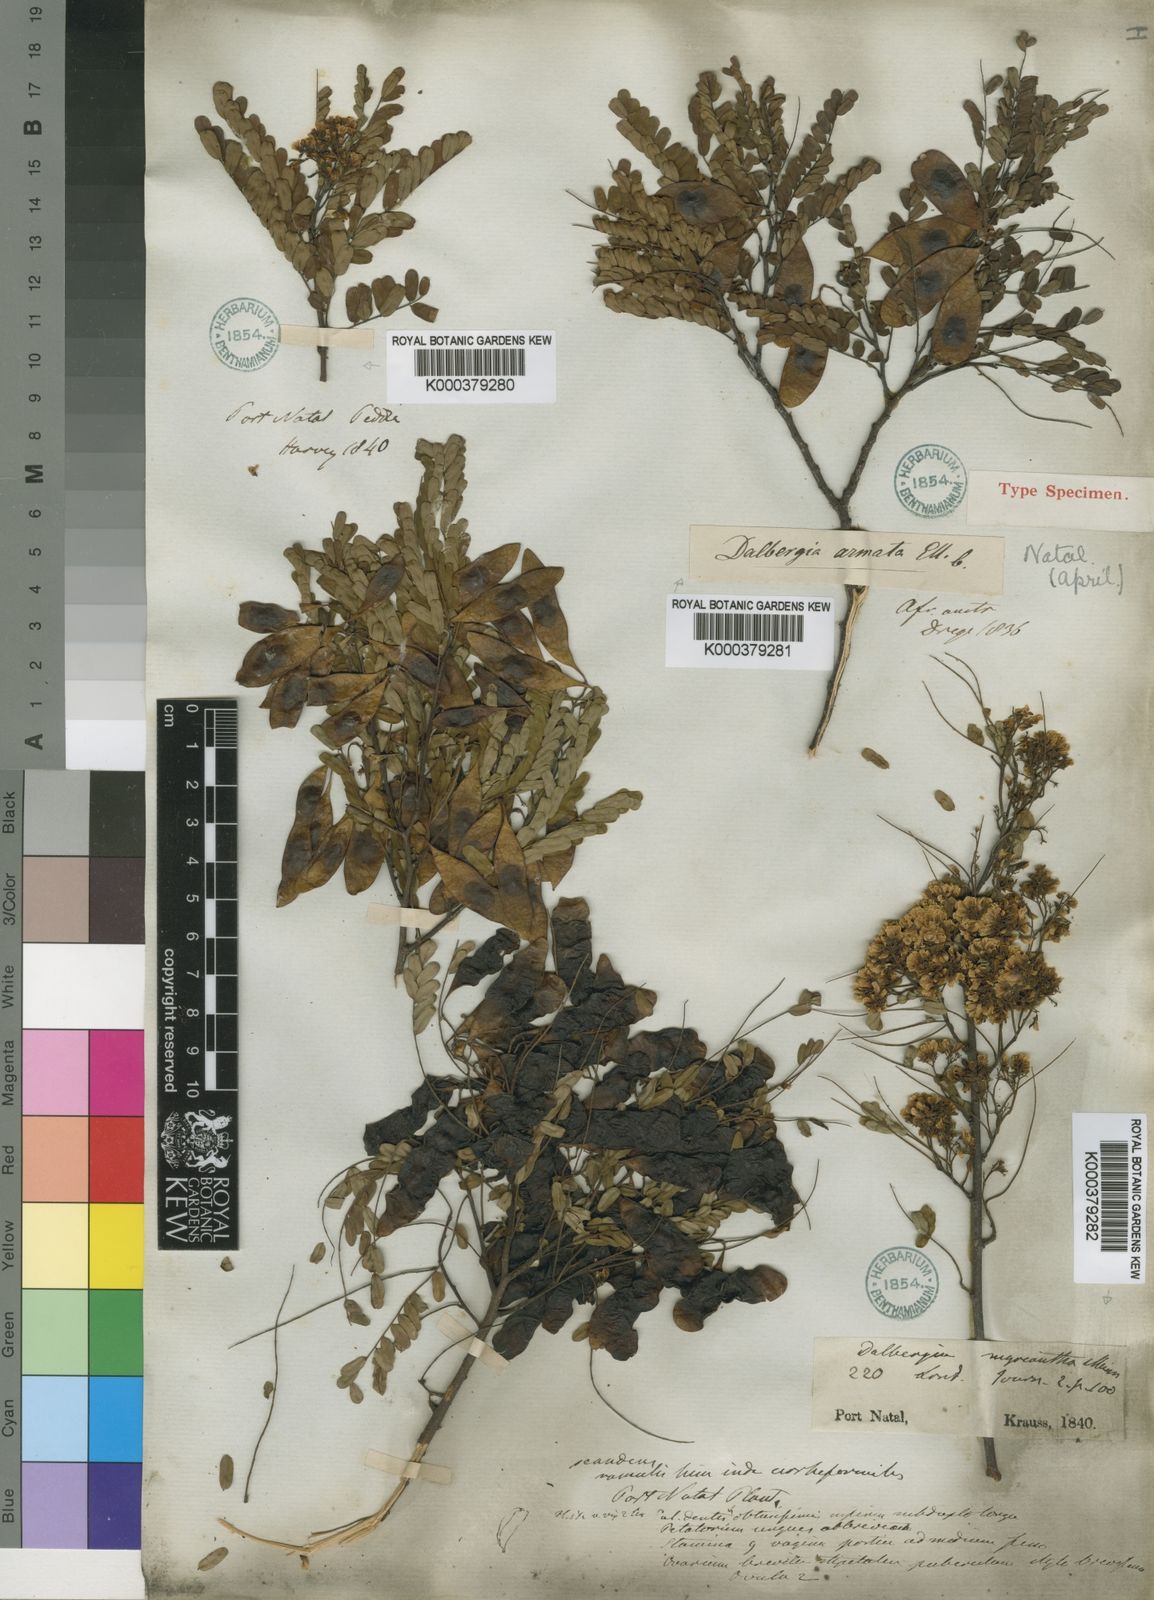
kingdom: Plantae
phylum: Tracheophyta
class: Magnoliopsida
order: Fabales
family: Fabaceae
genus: Dalbergia
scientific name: Dalbergia armata
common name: Hluhluwe climber
